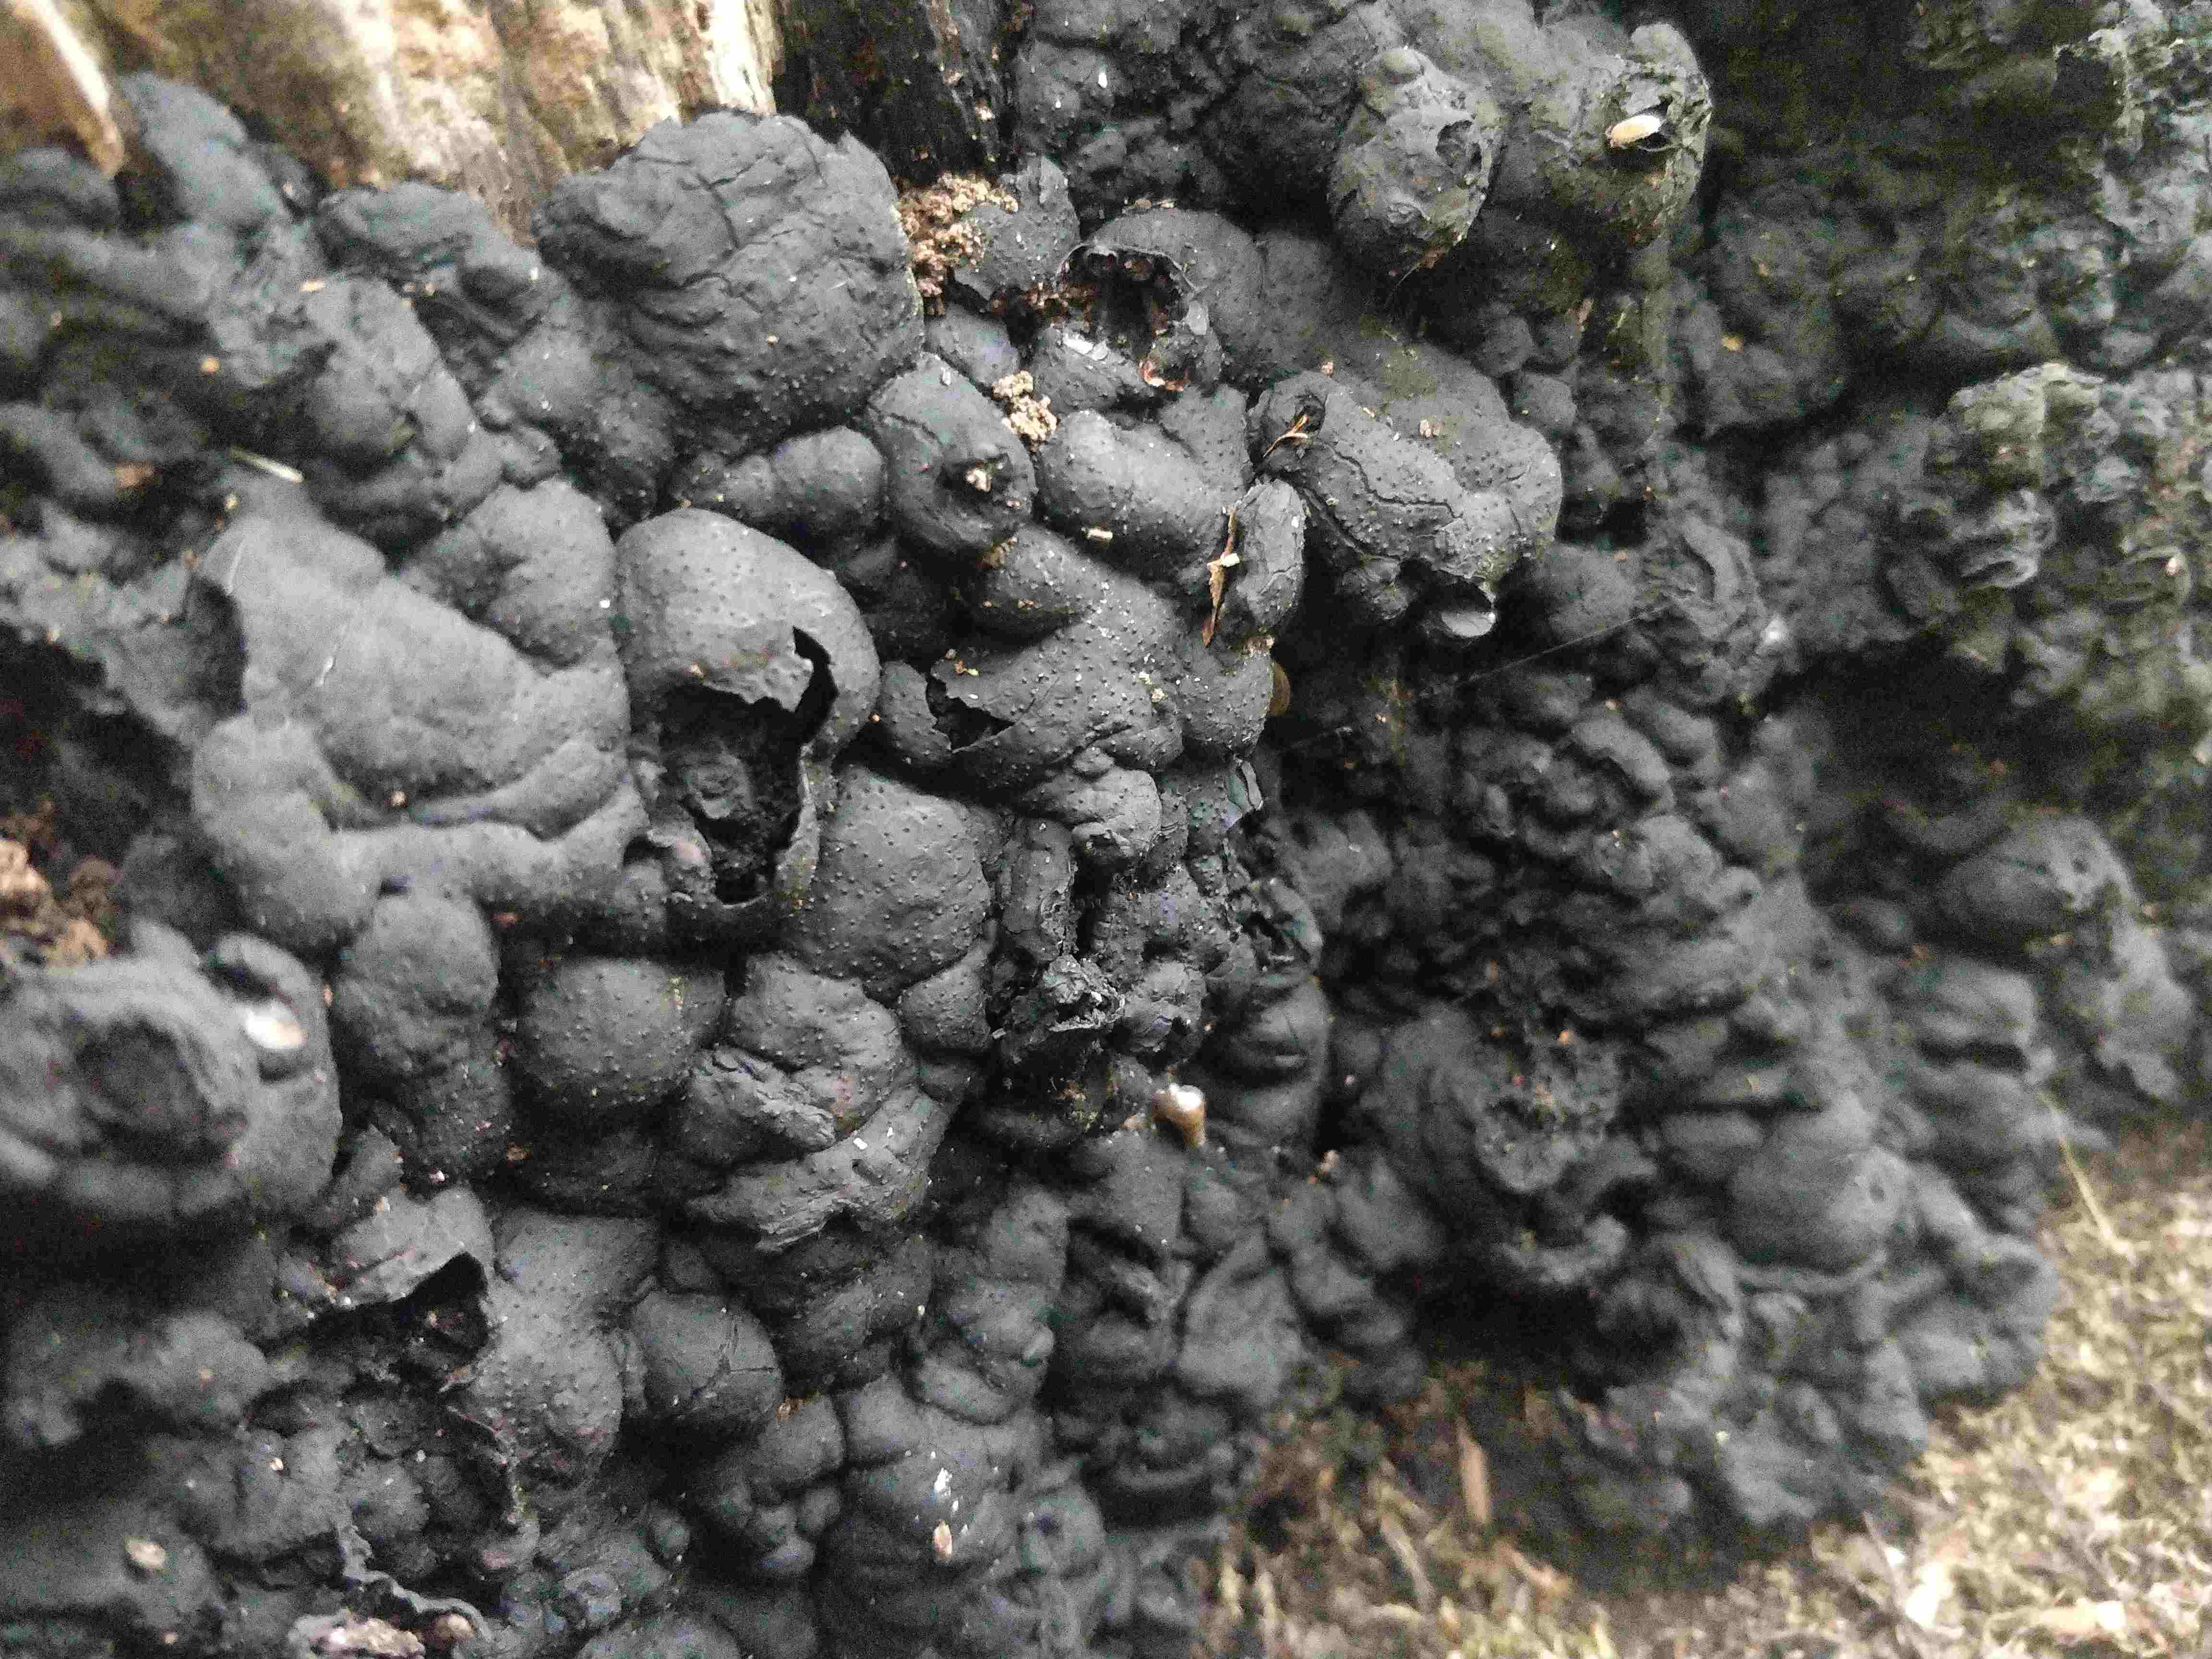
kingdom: Fungi
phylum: Ascomycota
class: Sordariomycetes
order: Xylariales
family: Xylariaceae
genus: Kretzschmaria
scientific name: Kretzschmaria deusta
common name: stor kulsvamp
